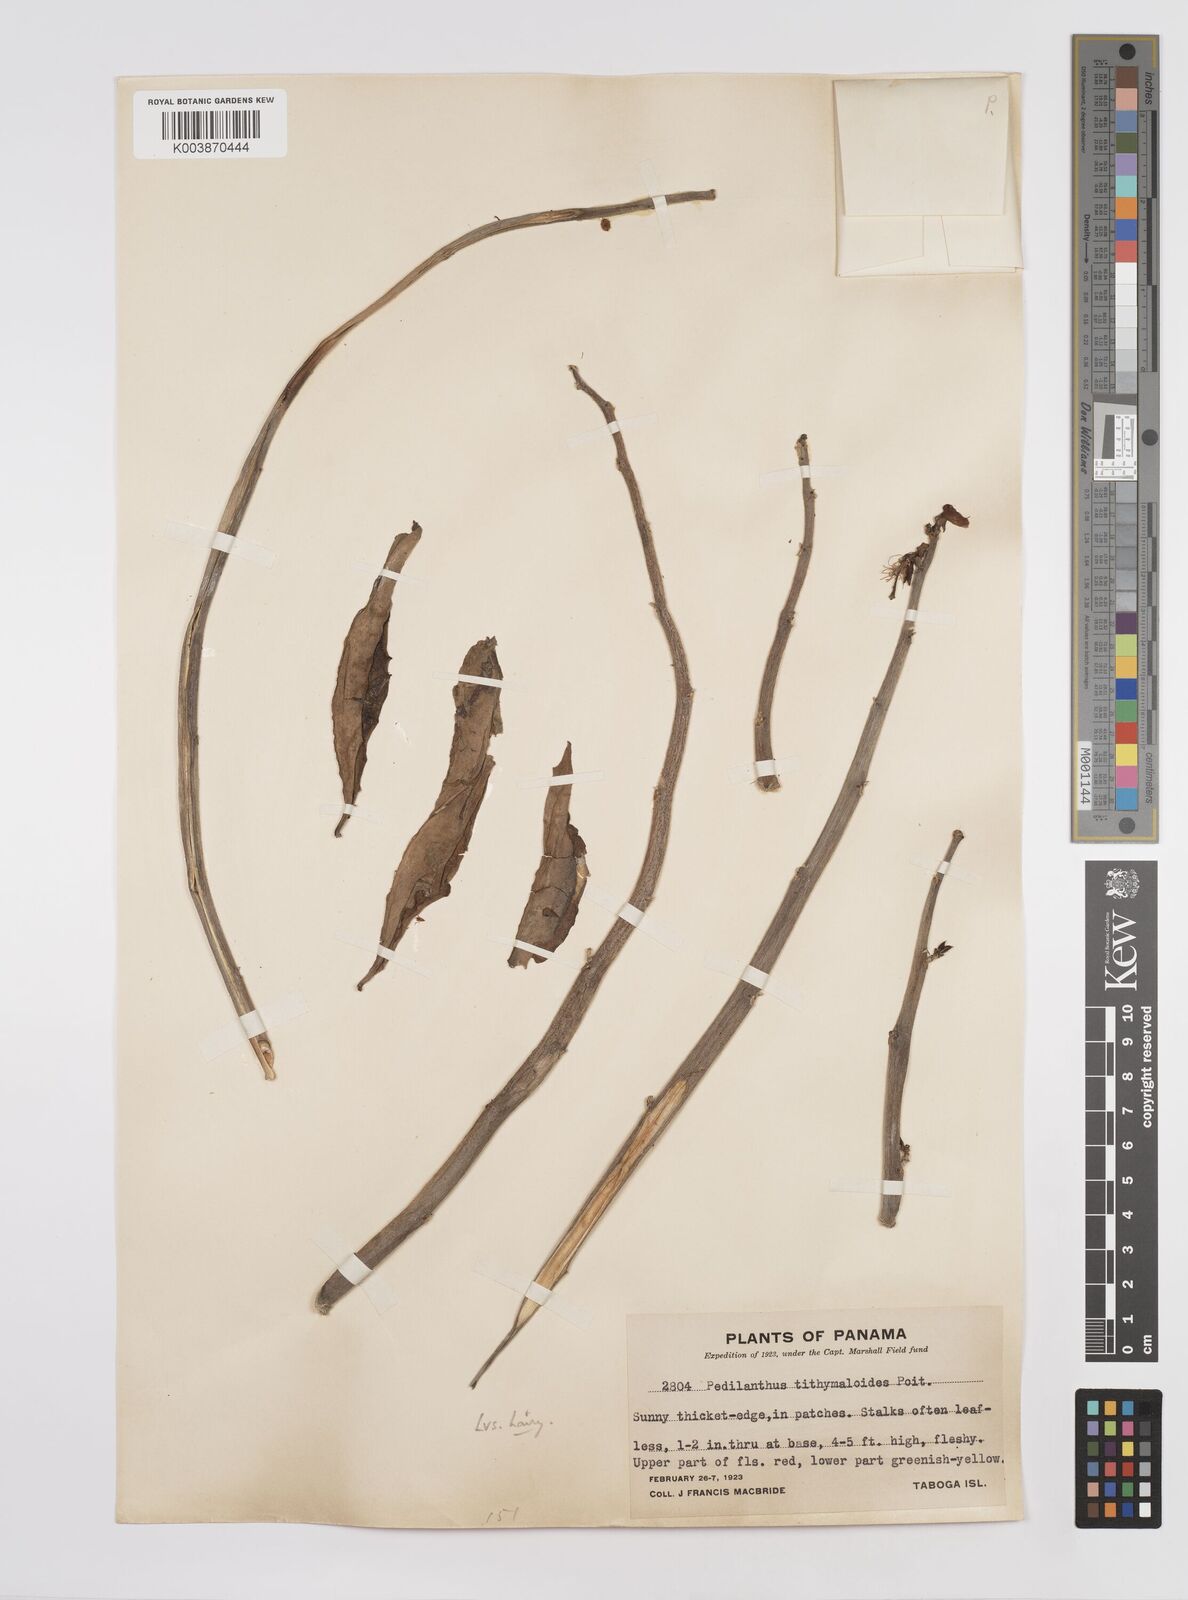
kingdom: Plantae
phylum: Tracheophyta
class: Magnoliopsida
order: Malpighiales
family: Euphorbiaceae
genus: Euphorbia
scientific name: Euphorbia tithymaloides
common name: Slipperplant
